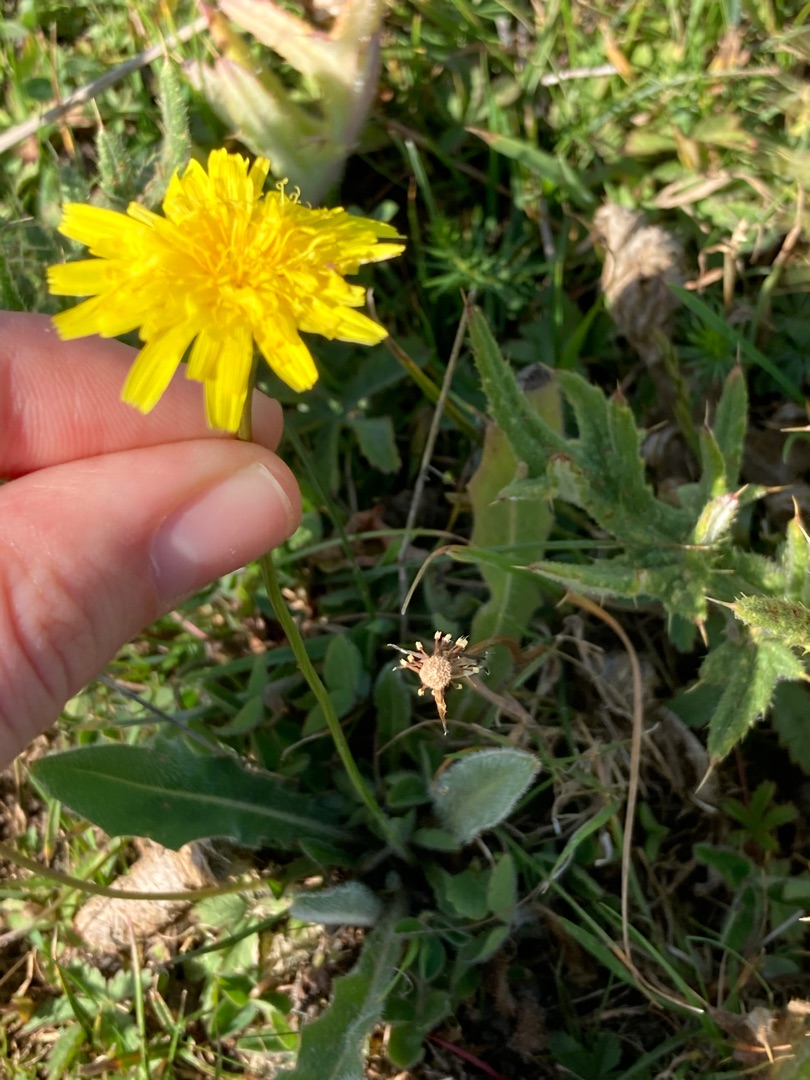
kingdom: Plantae
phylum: Tracheophyta
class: Magnoliopsida
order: Asterales
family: Asteraceae
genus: Thrincia
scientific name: Thrincia saxatilis
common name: Hundesalat
